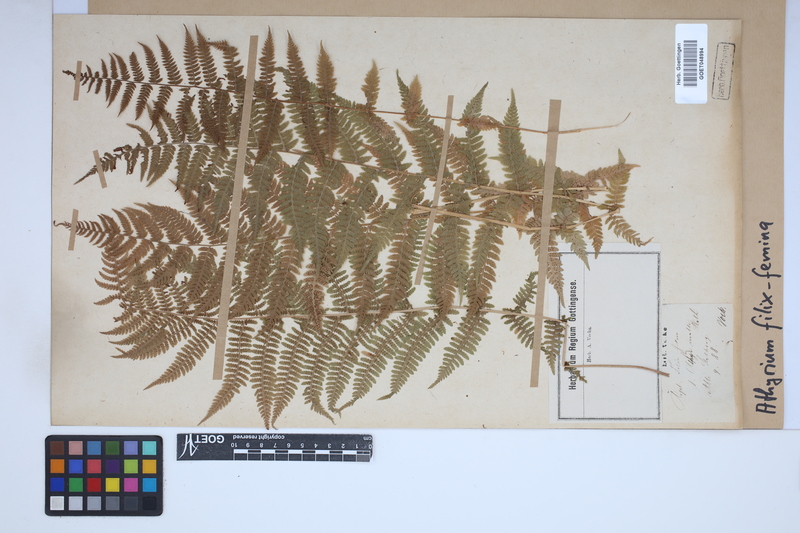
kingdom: Plantae
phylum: Tracheophyta
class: Polypodiopsida
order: Polypodiales
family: Athyriaceae
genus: Athyrium
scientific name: Athyrium filix-femina
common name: Lady fern
